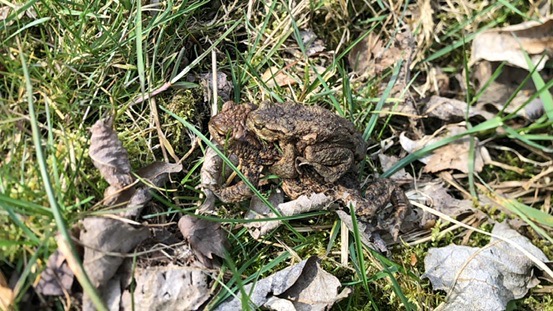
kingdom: Animalia
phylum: Chordata
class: Amphibia
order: Anura
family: Bufonidae
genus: Bufo
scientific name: Bufo bufo
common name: Skrubtudse
